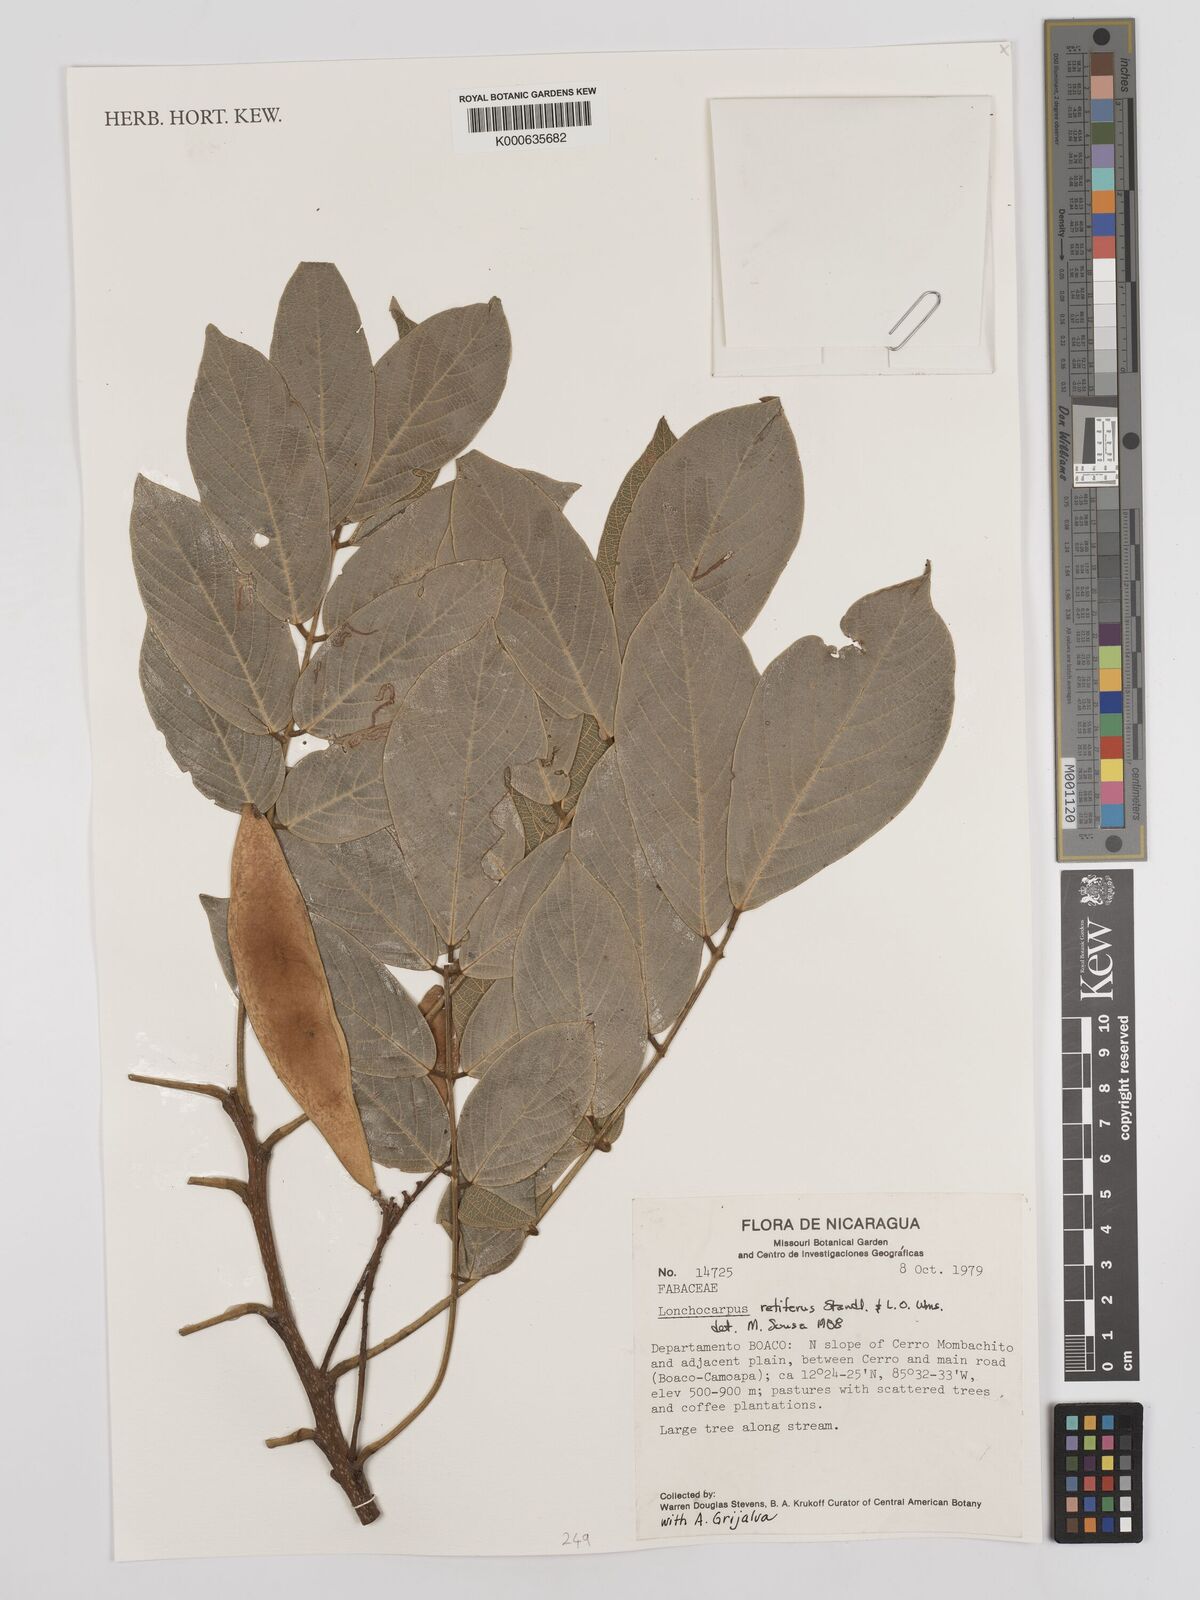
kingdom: Plantae
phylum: Tracheophyta
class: Magnoliopsida
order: Fabales
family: Fabaceae
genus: Lonchocarpus
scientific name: Lonchocarpus
